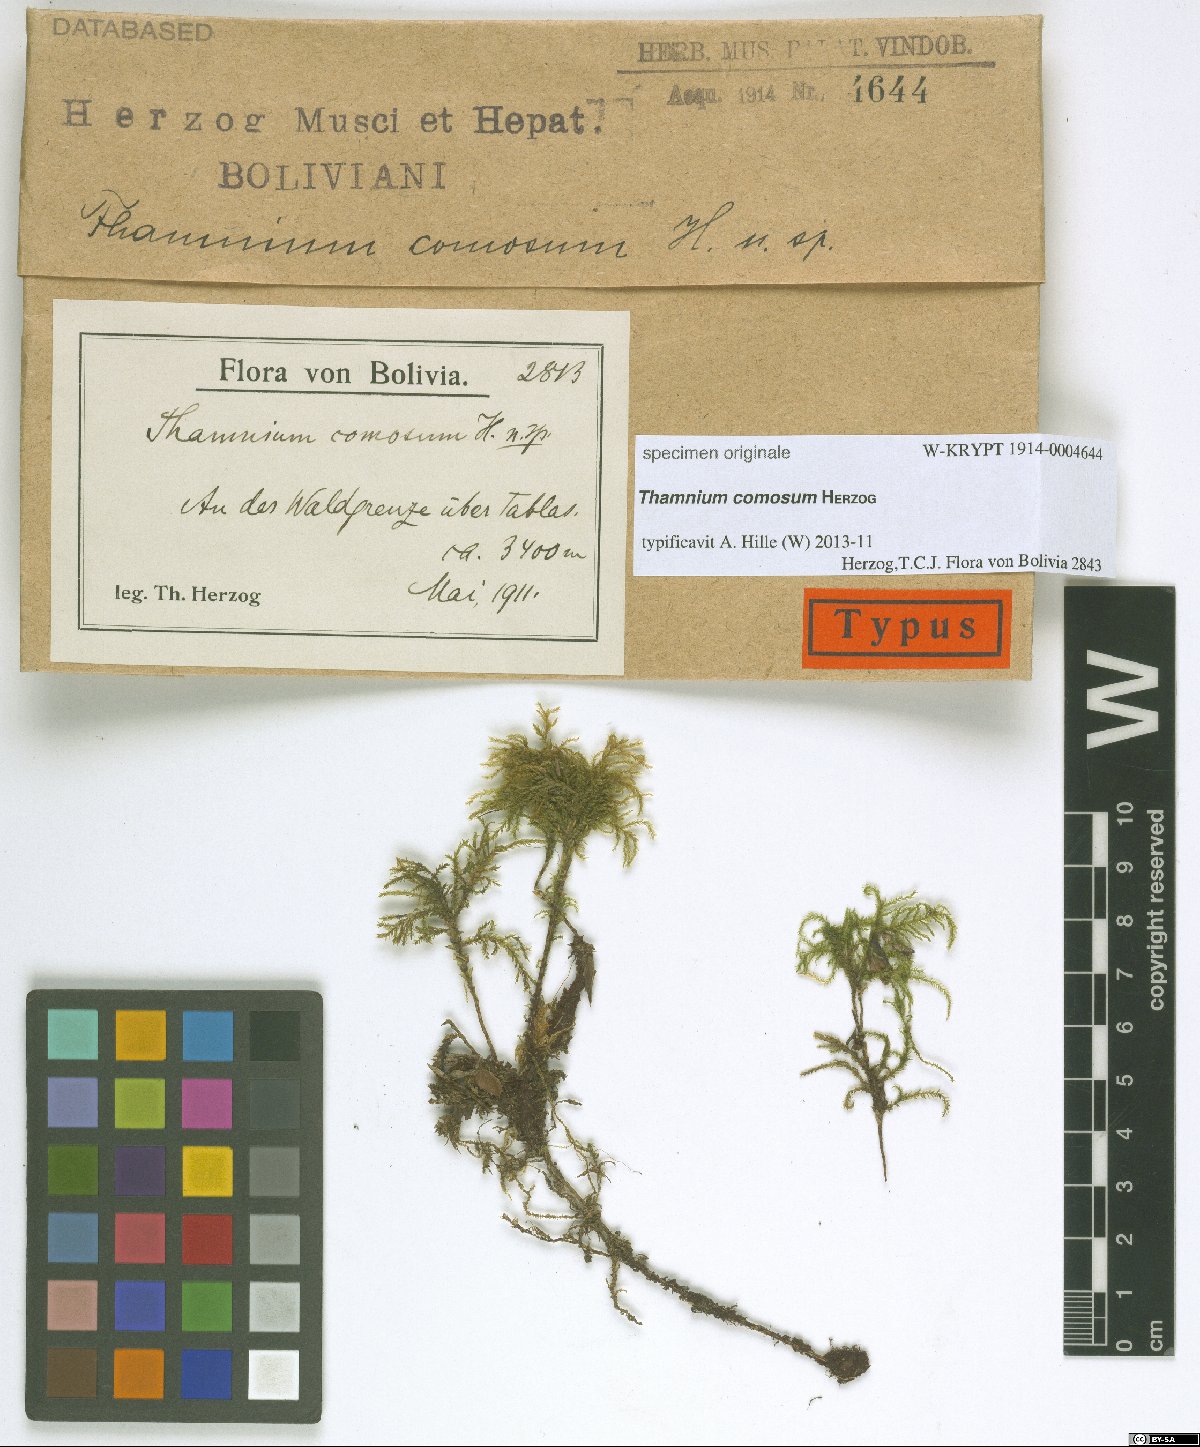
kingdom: Plantae
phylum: Bryophyta
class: Bryopsida
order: Hypnales
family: Neckeraceae
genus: Porotrichum
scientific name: Porotrichum comosum
